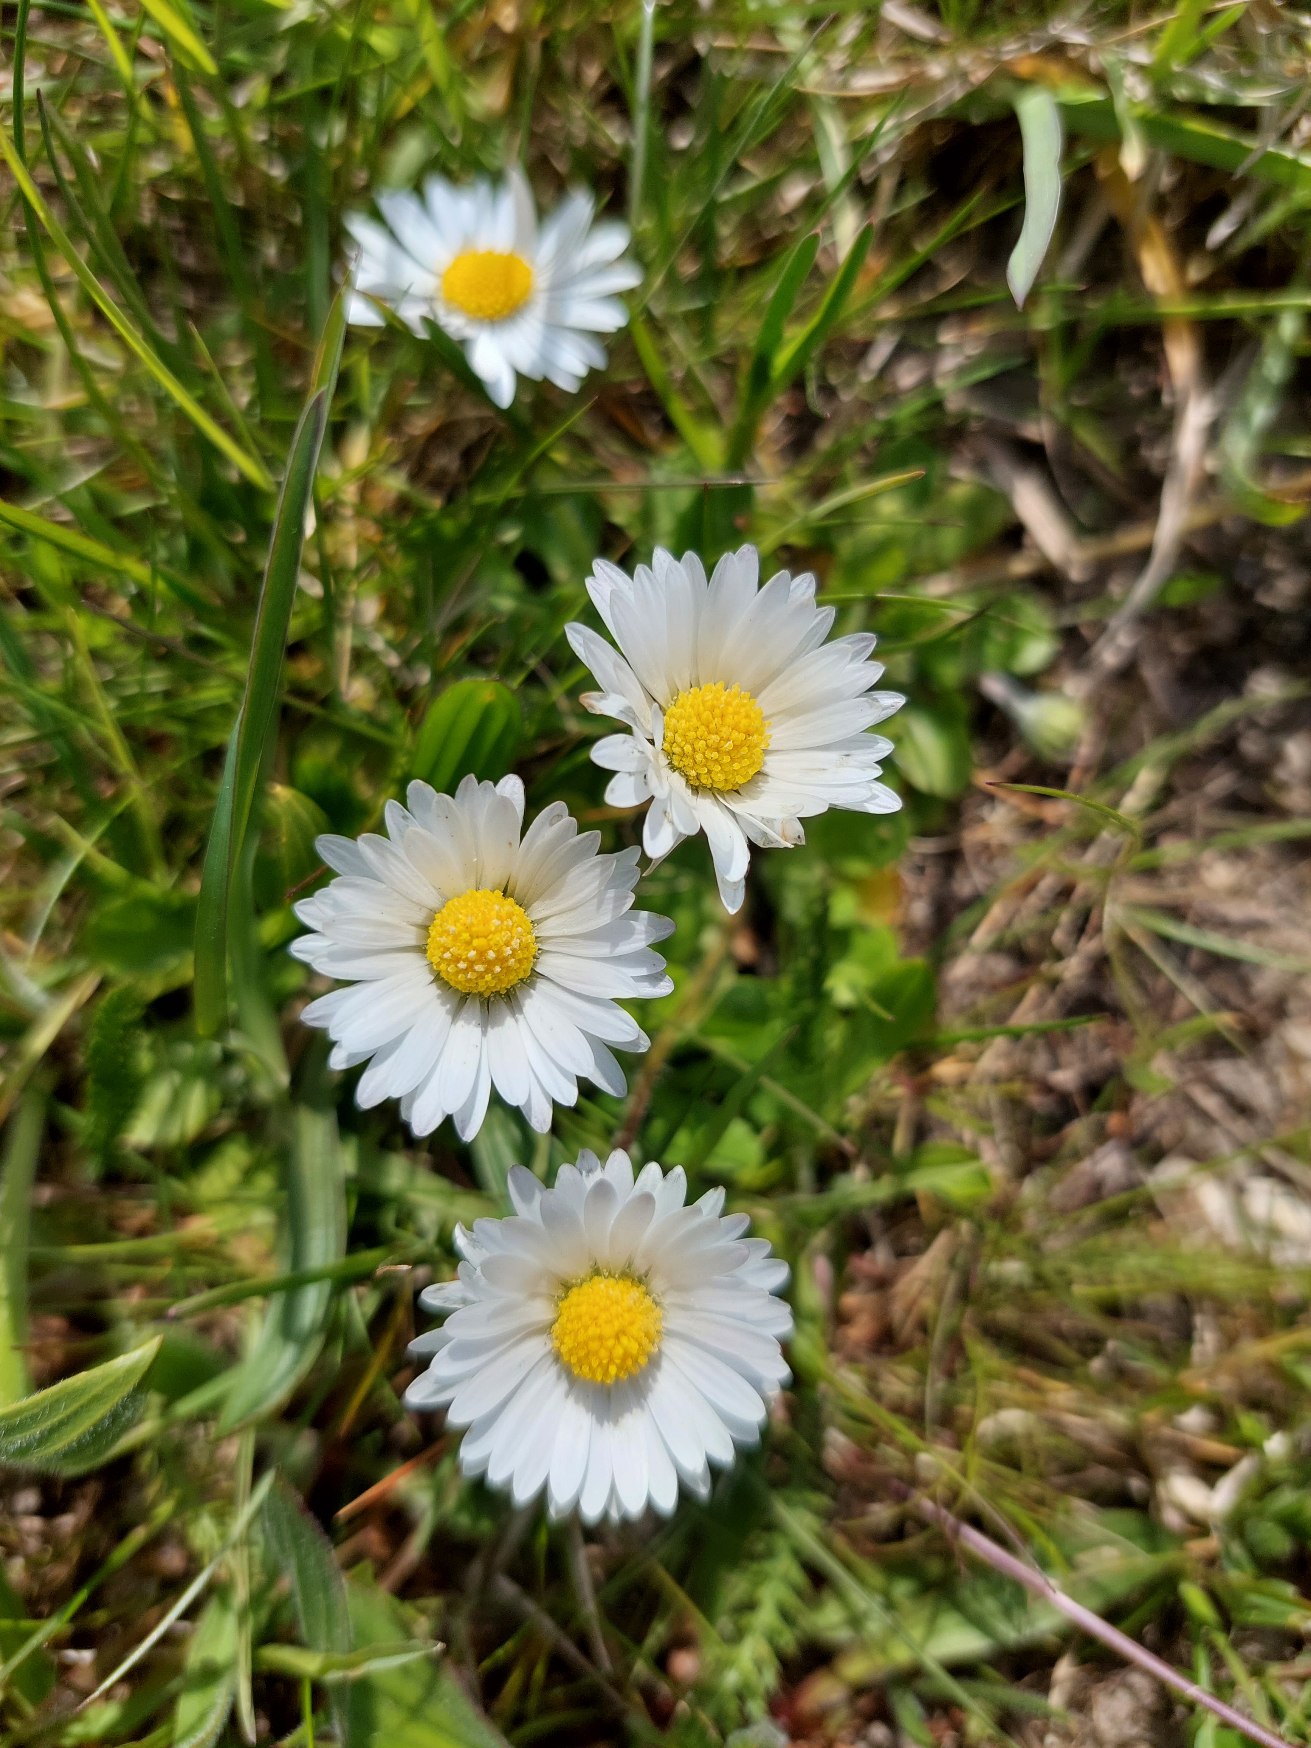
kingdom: Plantae
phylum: Tracheophyta
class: Magnoliopsida
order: Asterales
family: Asteraceae
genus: Bellis
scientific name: Bellis perennis
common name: Tusindfryd
